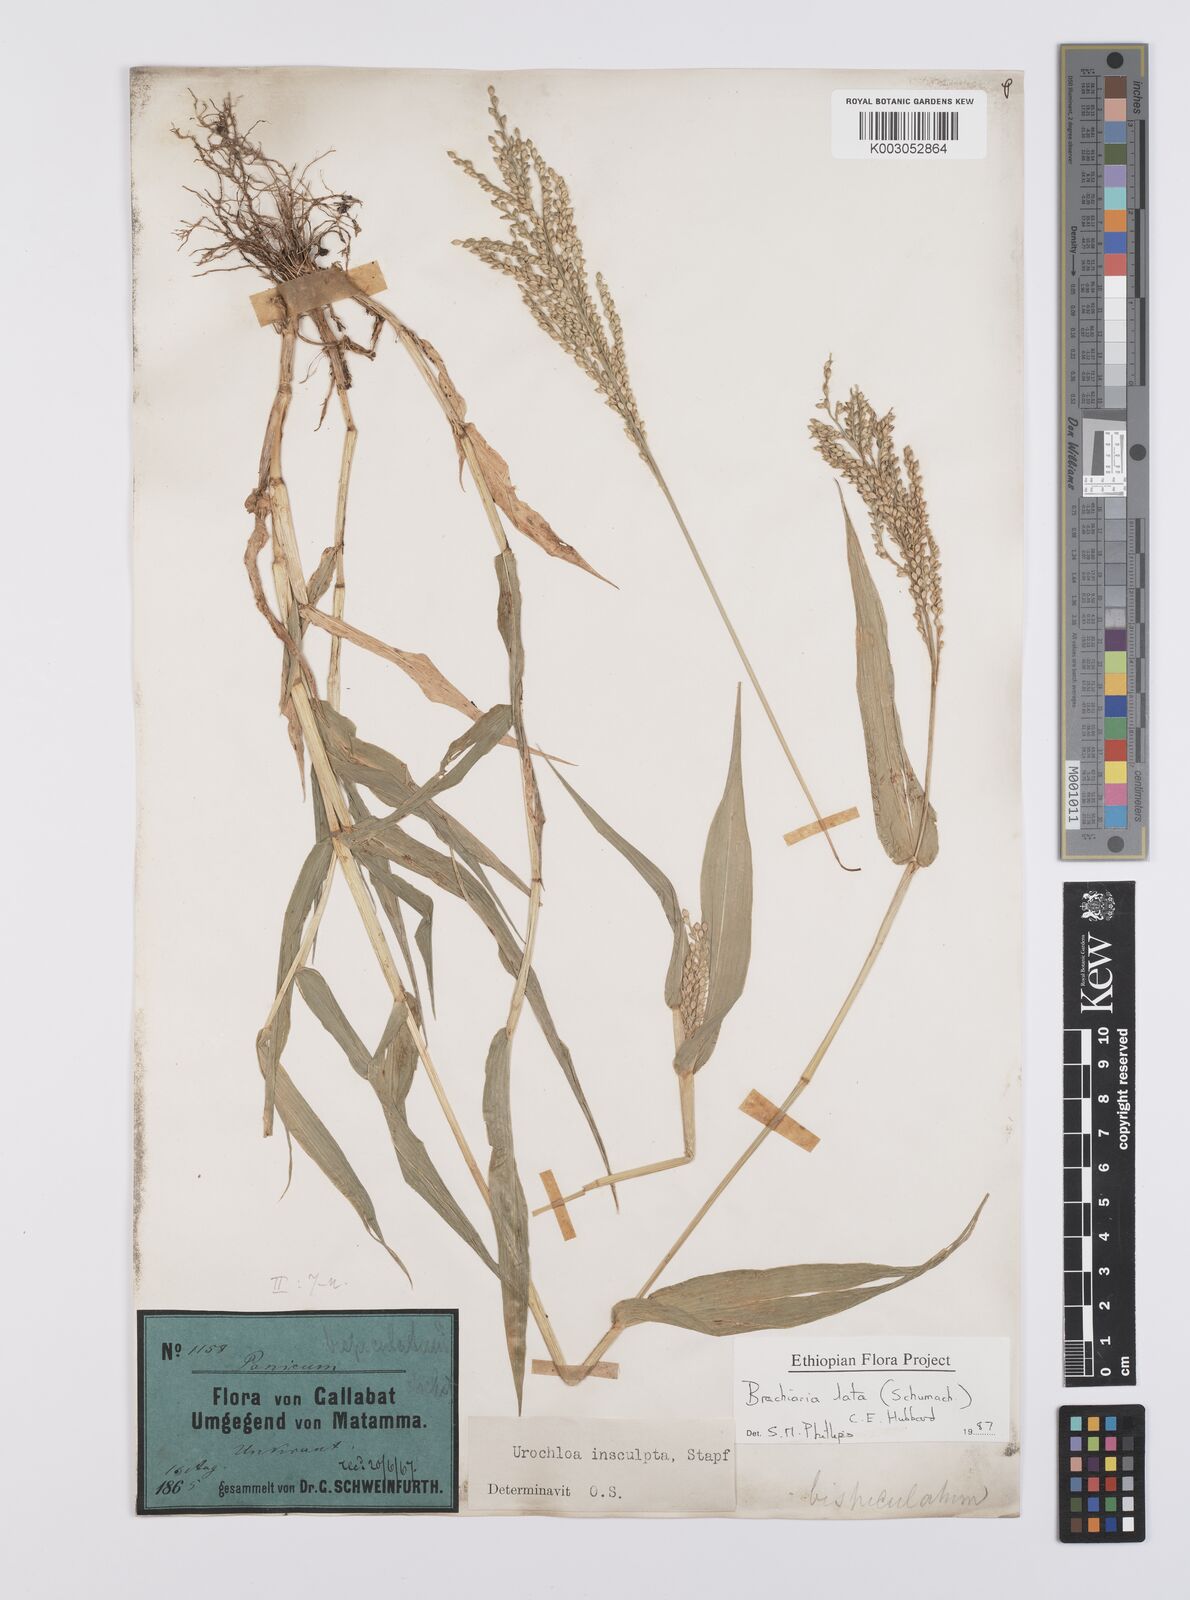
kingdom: Plantae
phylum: Tracheophyta
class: Liliopsida
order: Poales
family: Poaceae
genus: Urochloa
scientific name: Urochloa lata
